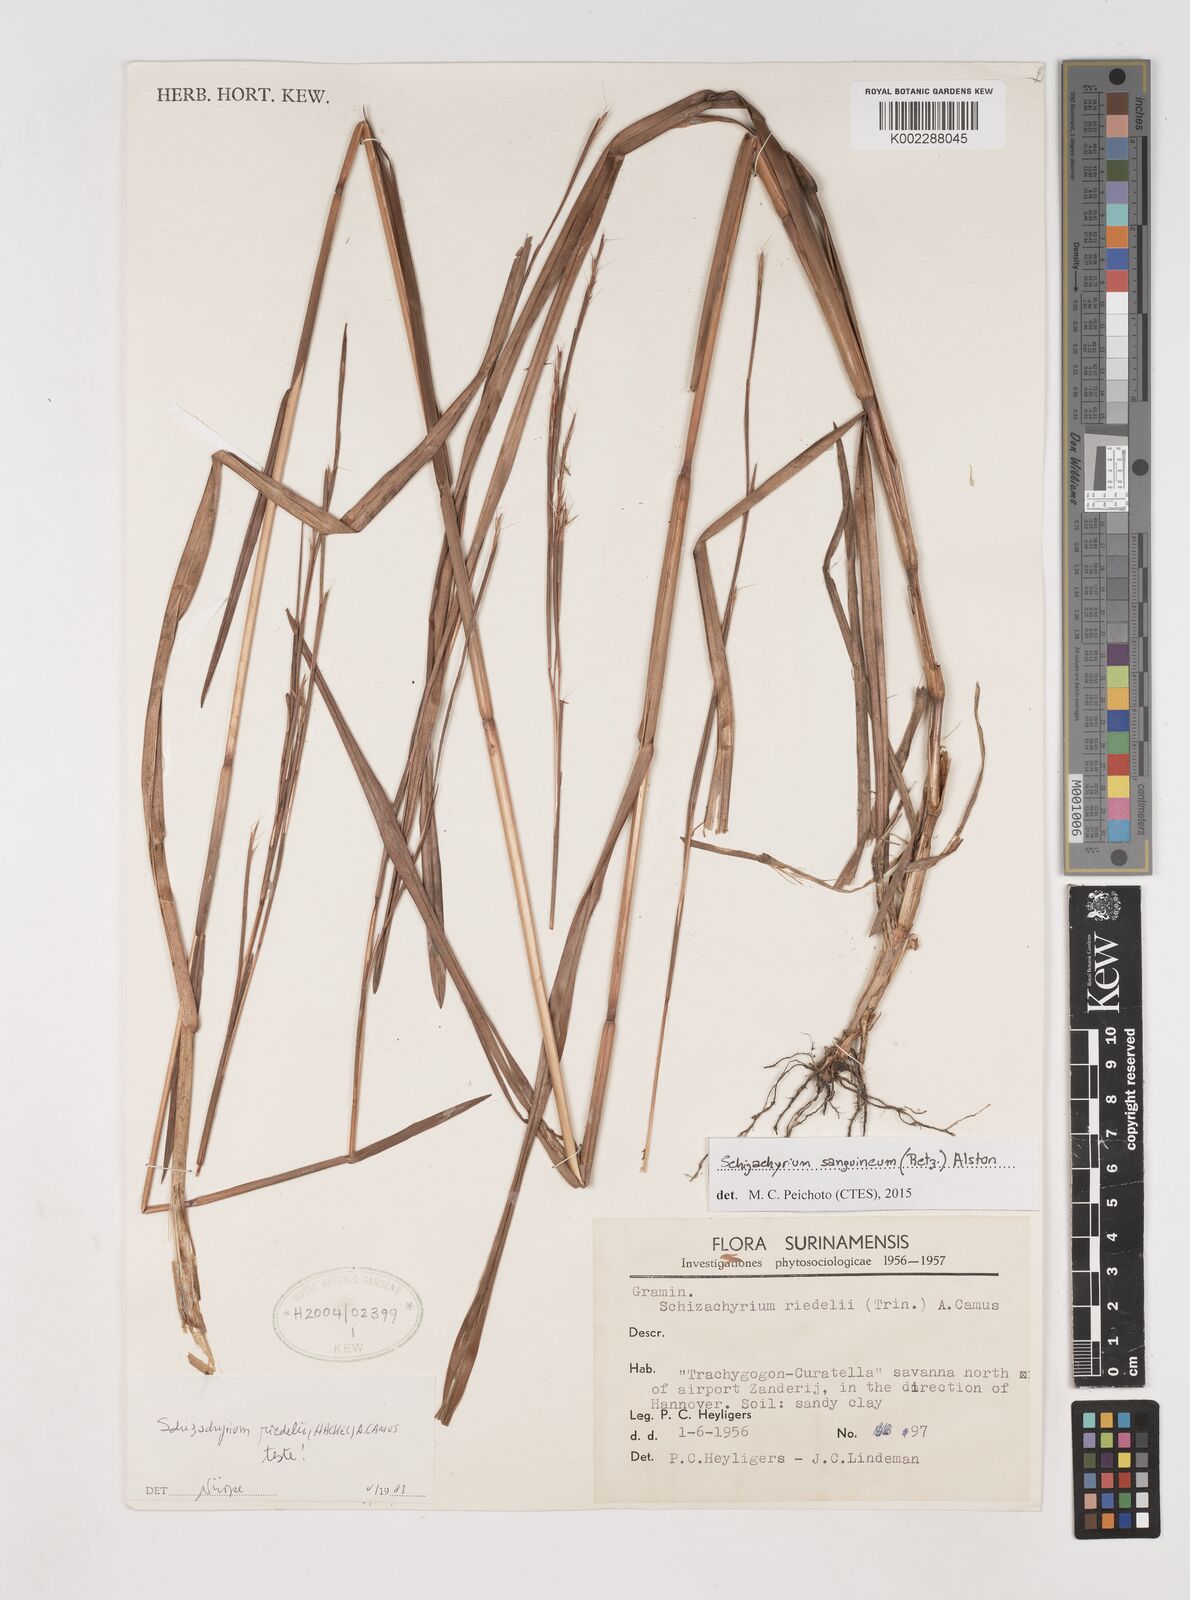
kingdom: Plantae
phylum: Tracheophyta
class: Liliopsida
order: Poales
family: Poaceae
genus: Schizachyrium
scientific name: Schizachyrium sanguineum
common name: Crimson bluestem
